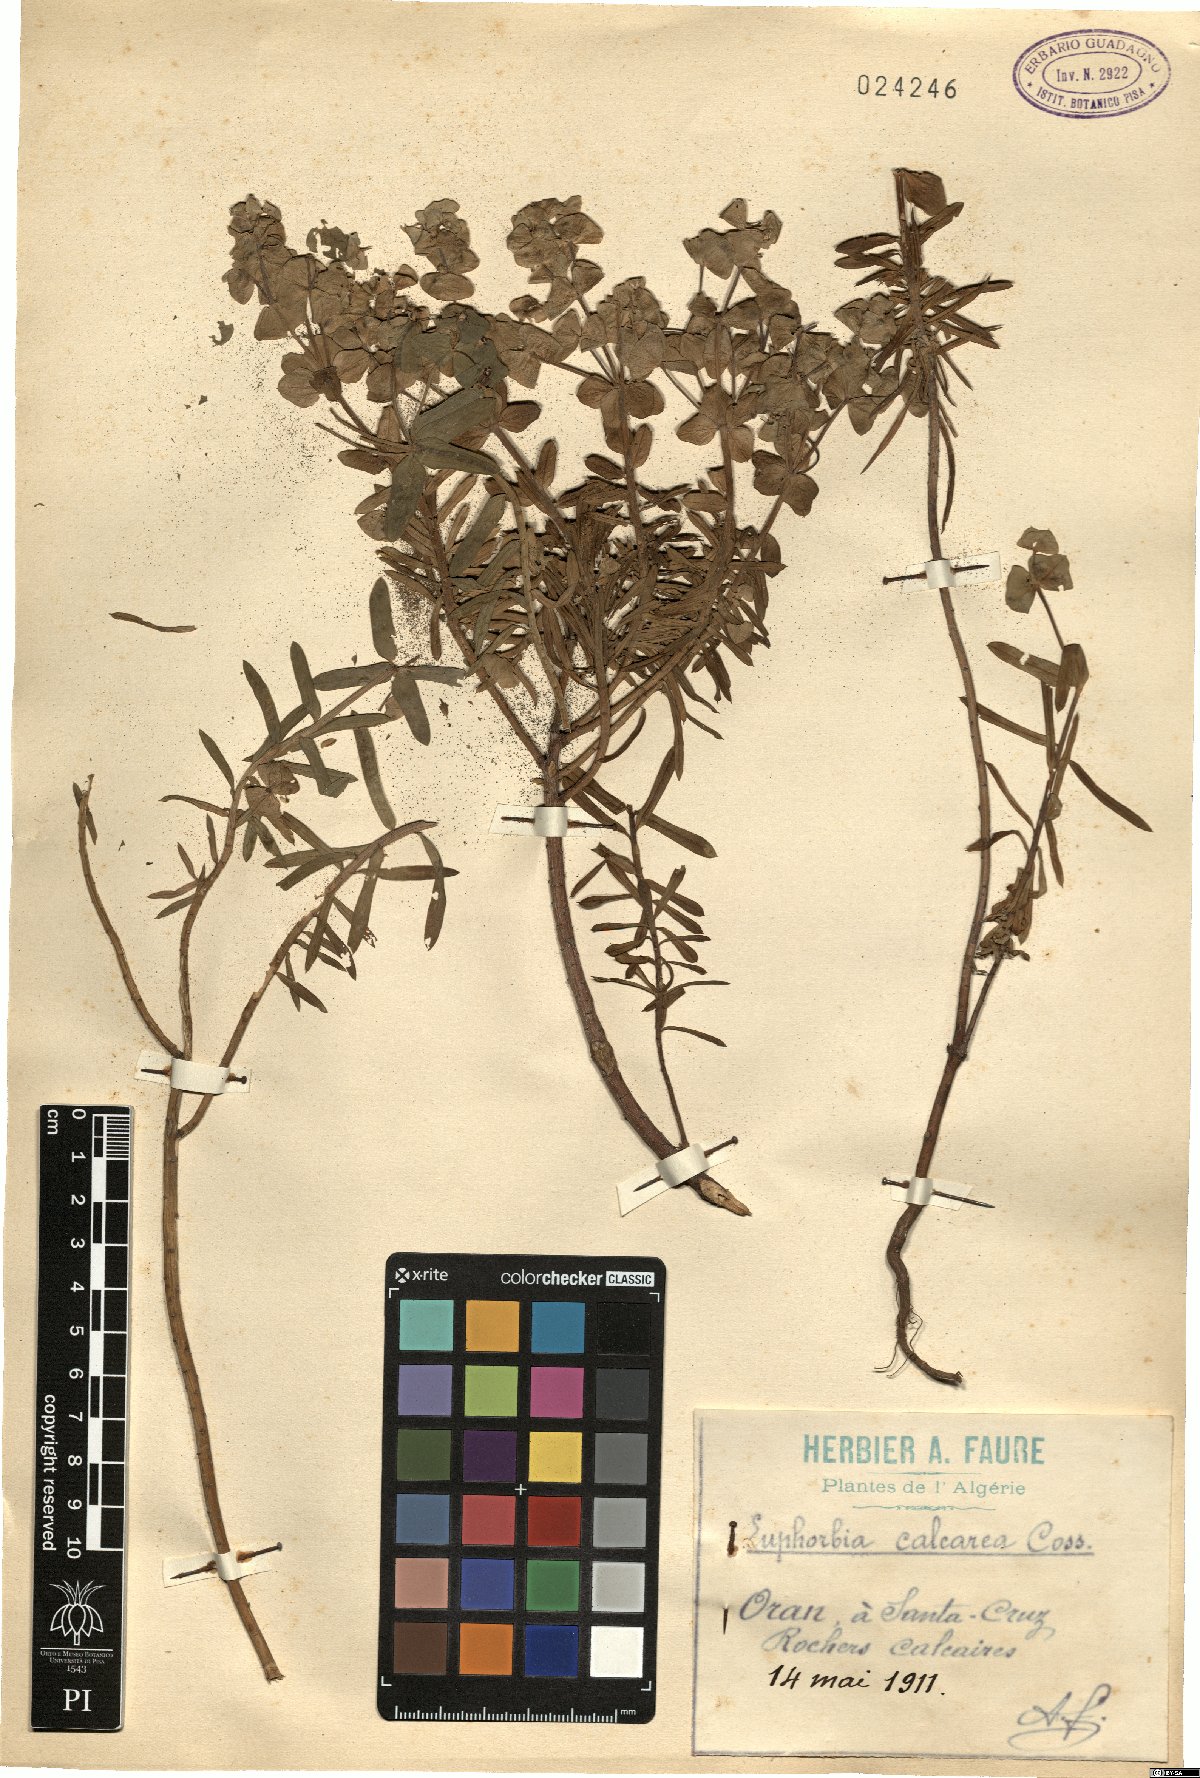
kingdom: Plantae
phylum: Tracheophyta
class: Magnoliopsida
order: Malpighiales
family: Euphorbiaceae
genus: Euphorbia
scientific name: Euphorbia segetalis
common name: Corn spurge
